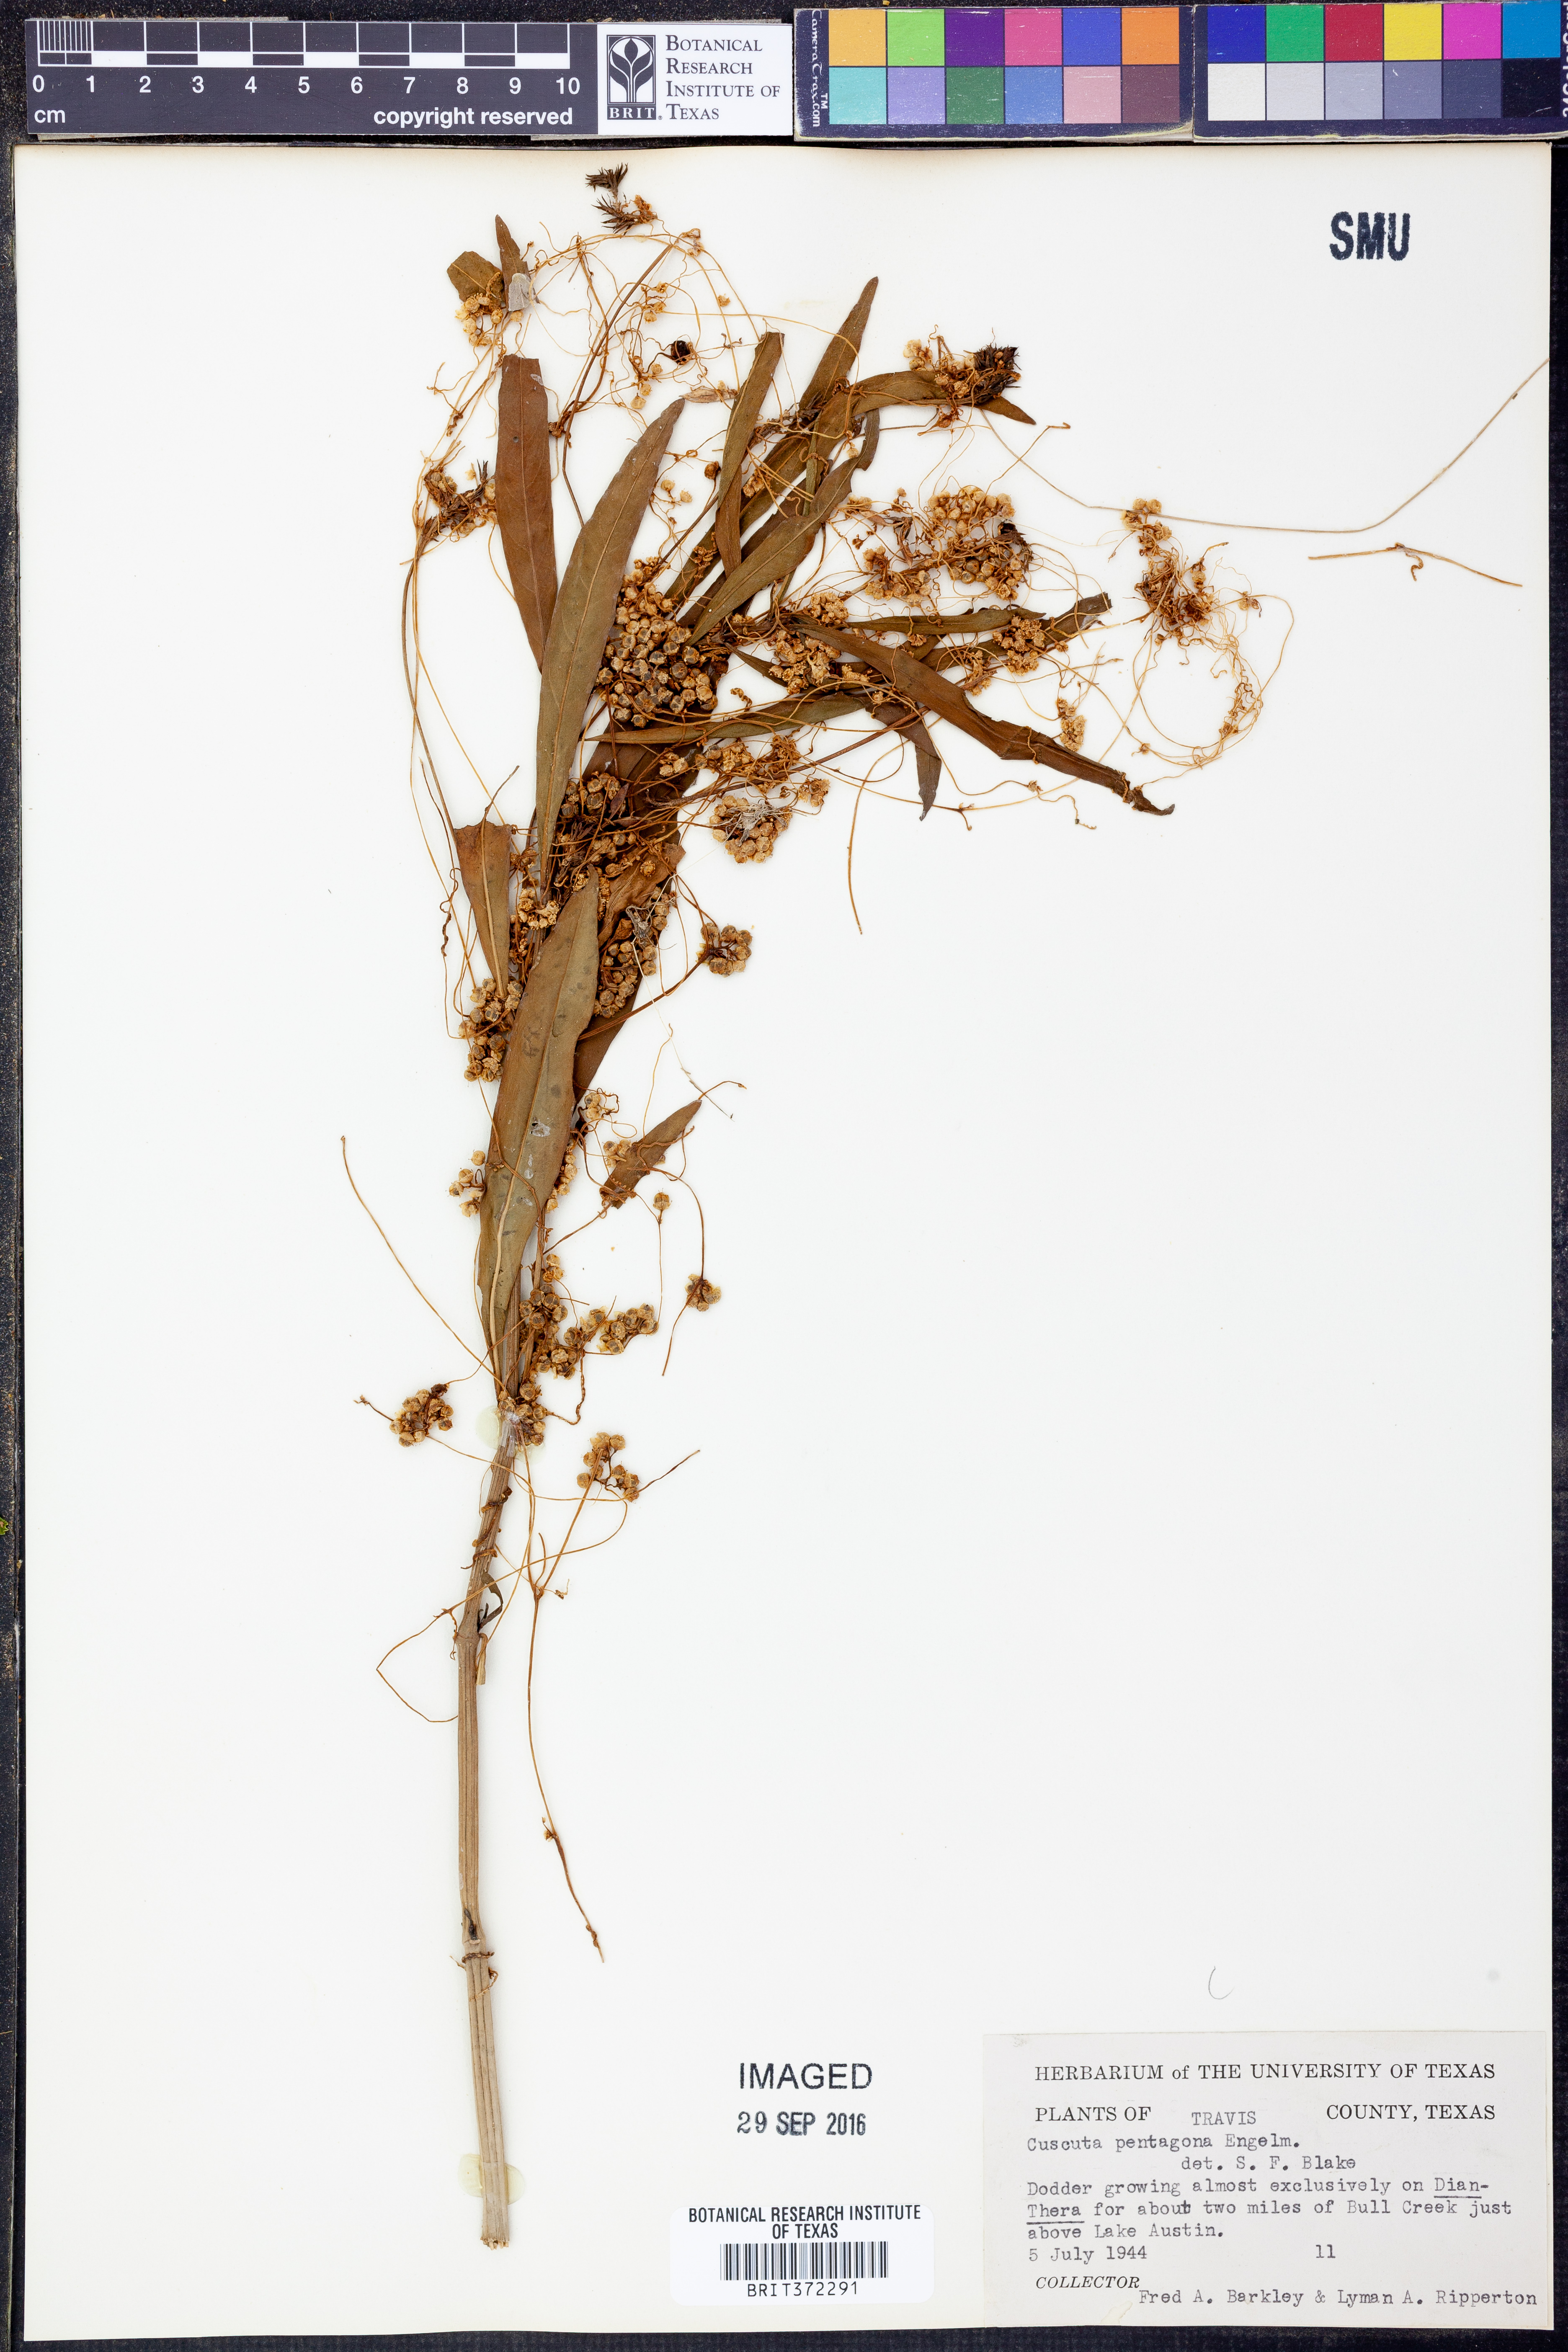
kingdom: Plantae
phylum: Tracheophyta
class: Magnoliopsida
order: Solanales
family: Convolvulaceae
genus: Cuscuta
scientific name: Cuscuta pentagona
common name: Fiveangled dodder
